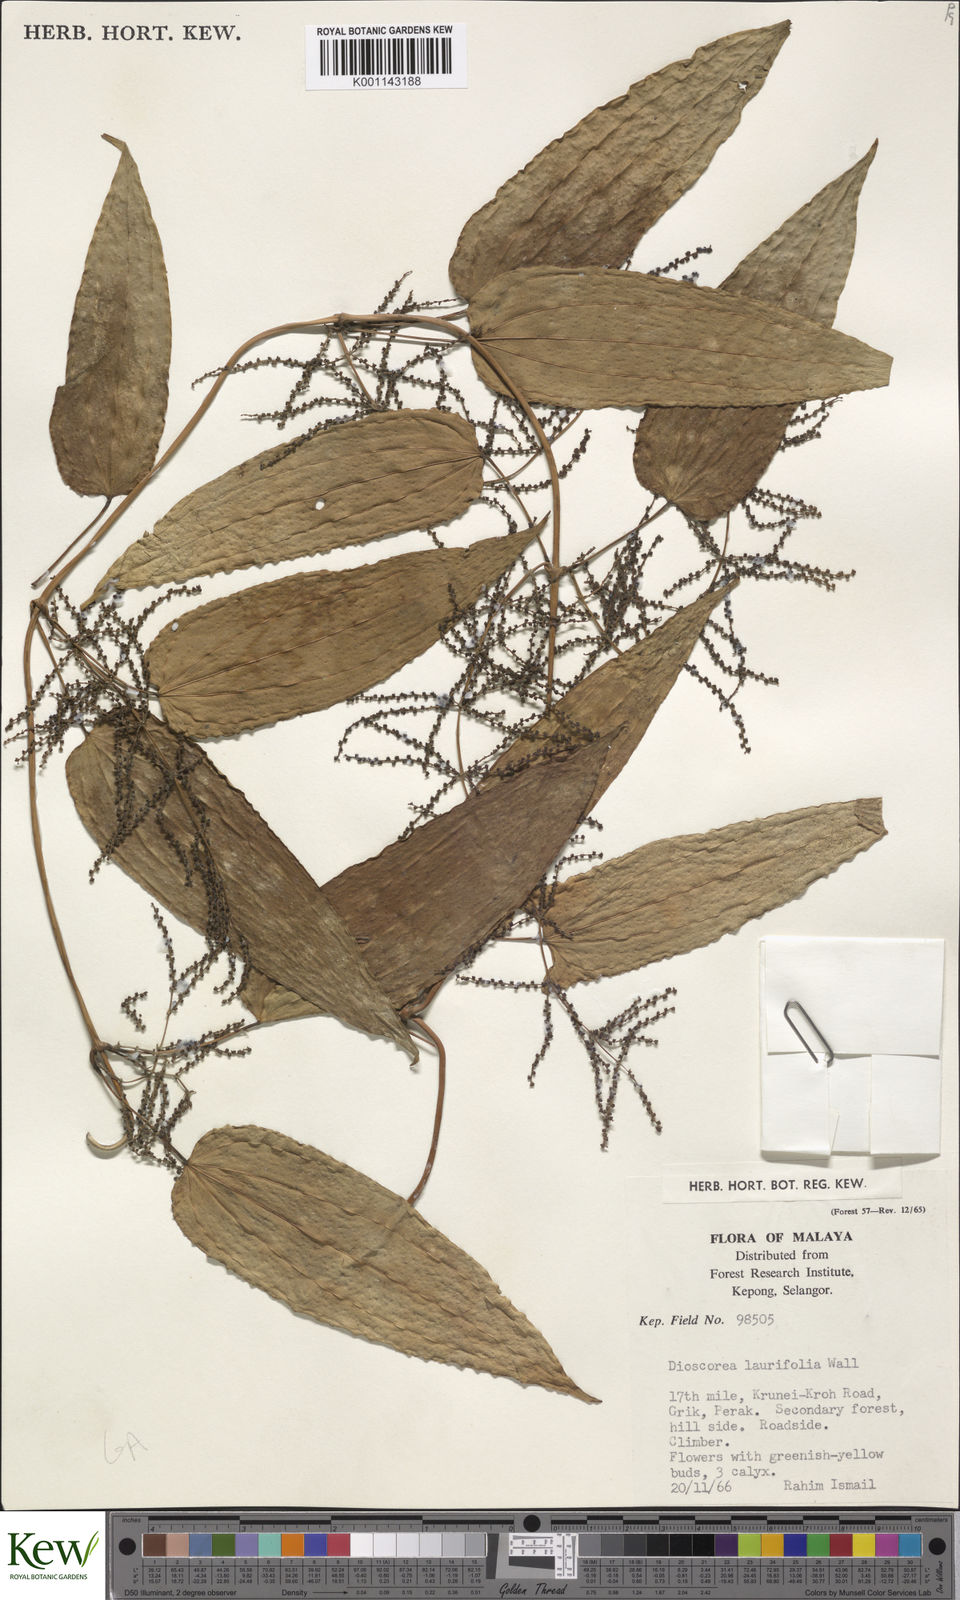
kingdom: Plantae
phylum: Tracheophyta
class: Liliopsida
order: Dioscoreales
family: Dioscoreaceae
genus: Dioscorea
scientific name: Dioscorea laurifolia
